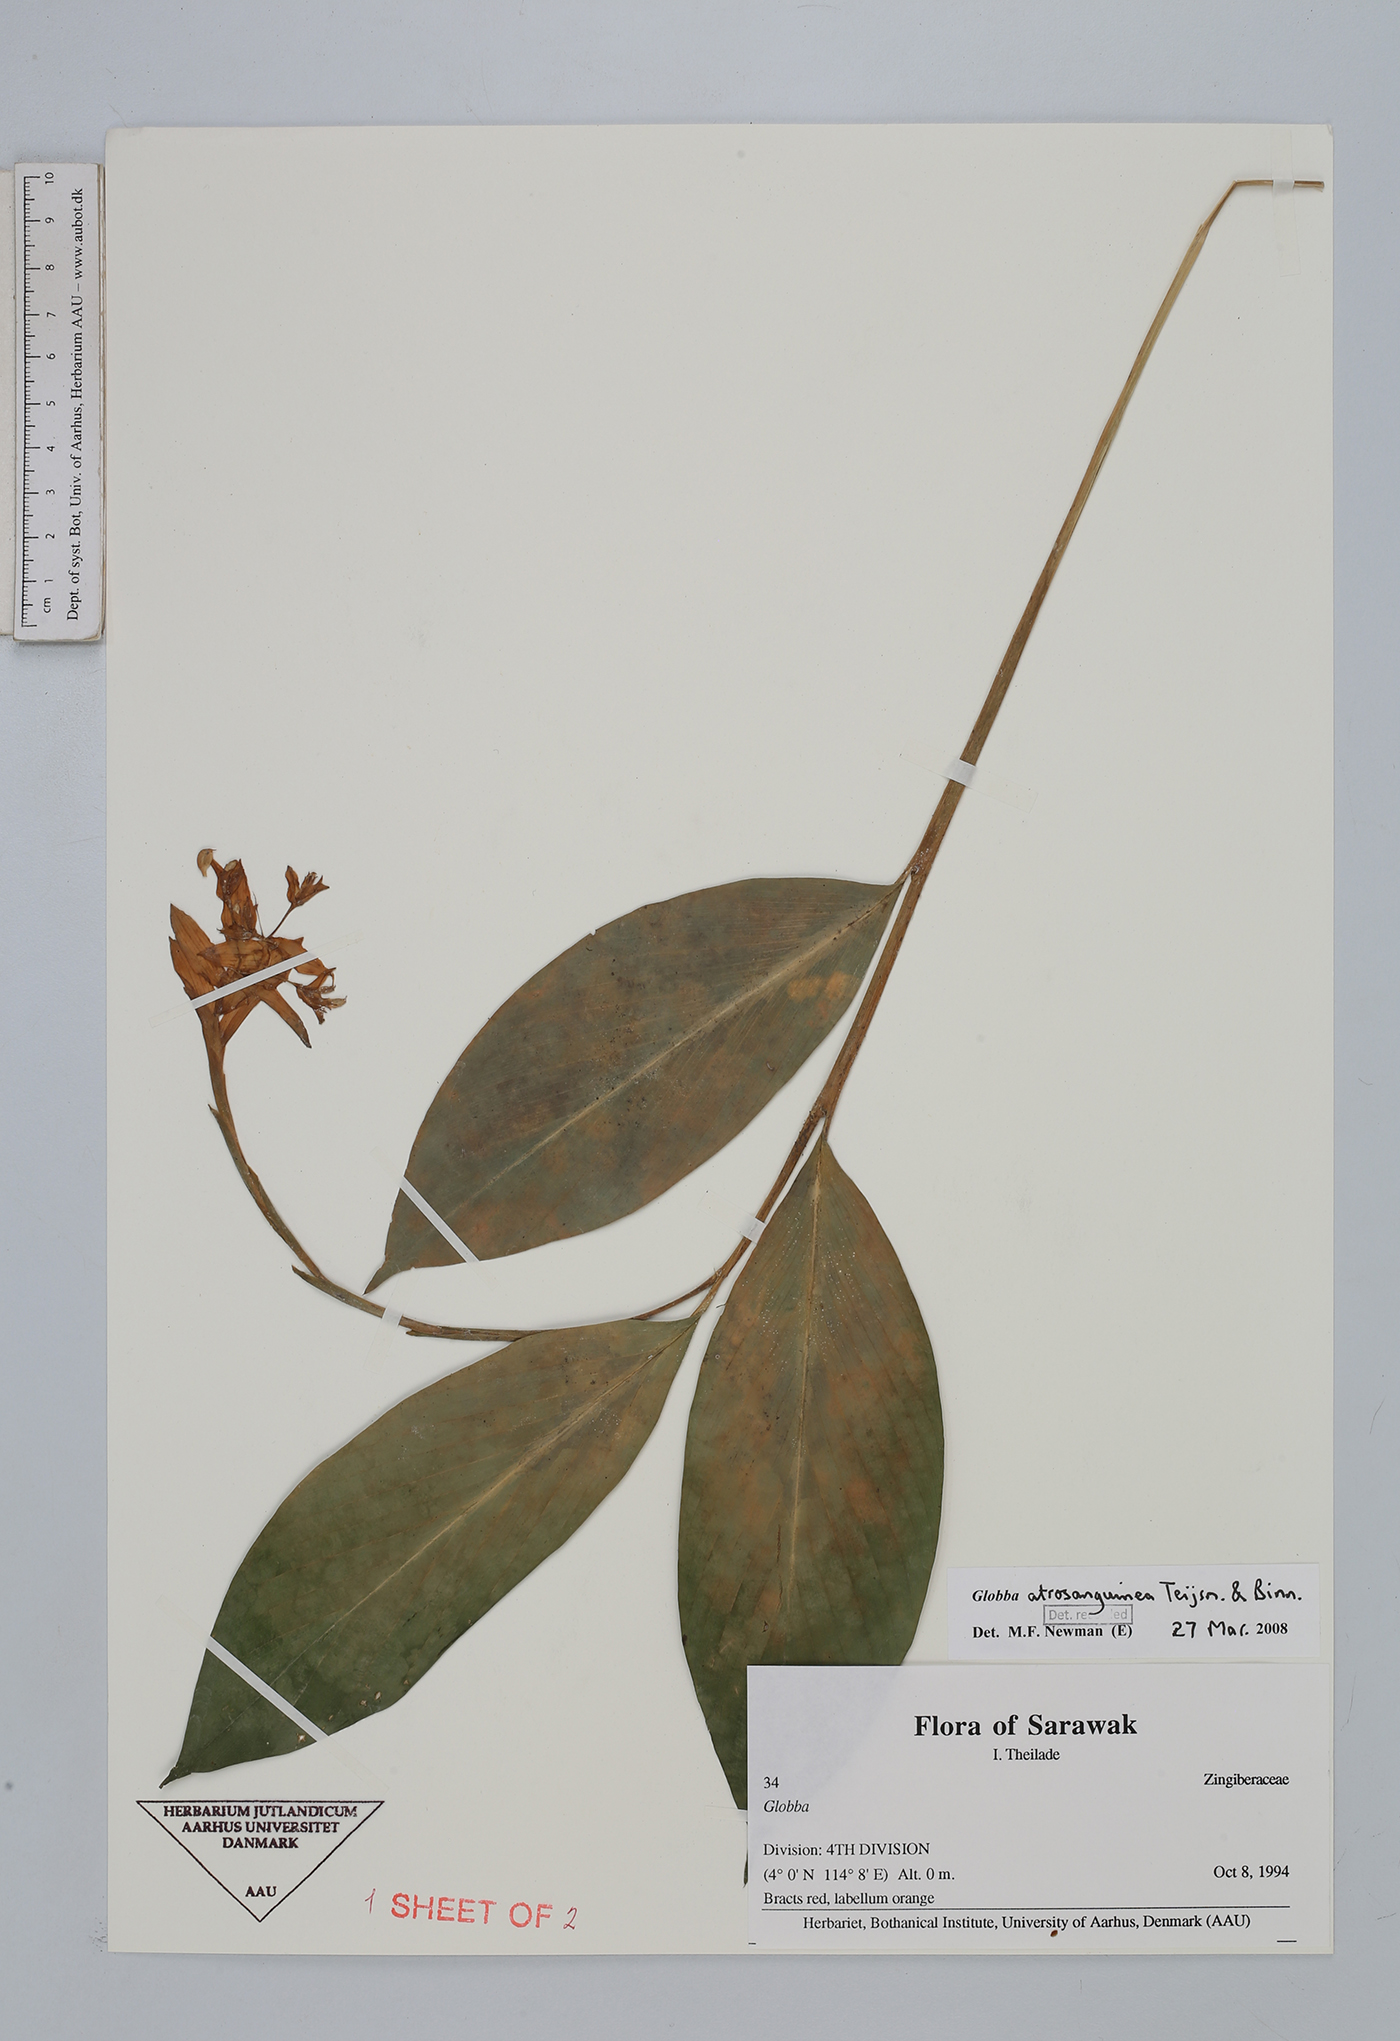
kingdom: Plantae
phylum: Tracheophyta
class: Liliopsida
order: Zingiberales
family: Zingiberaceae
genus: Globba
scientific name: Globba atrosanguinea
